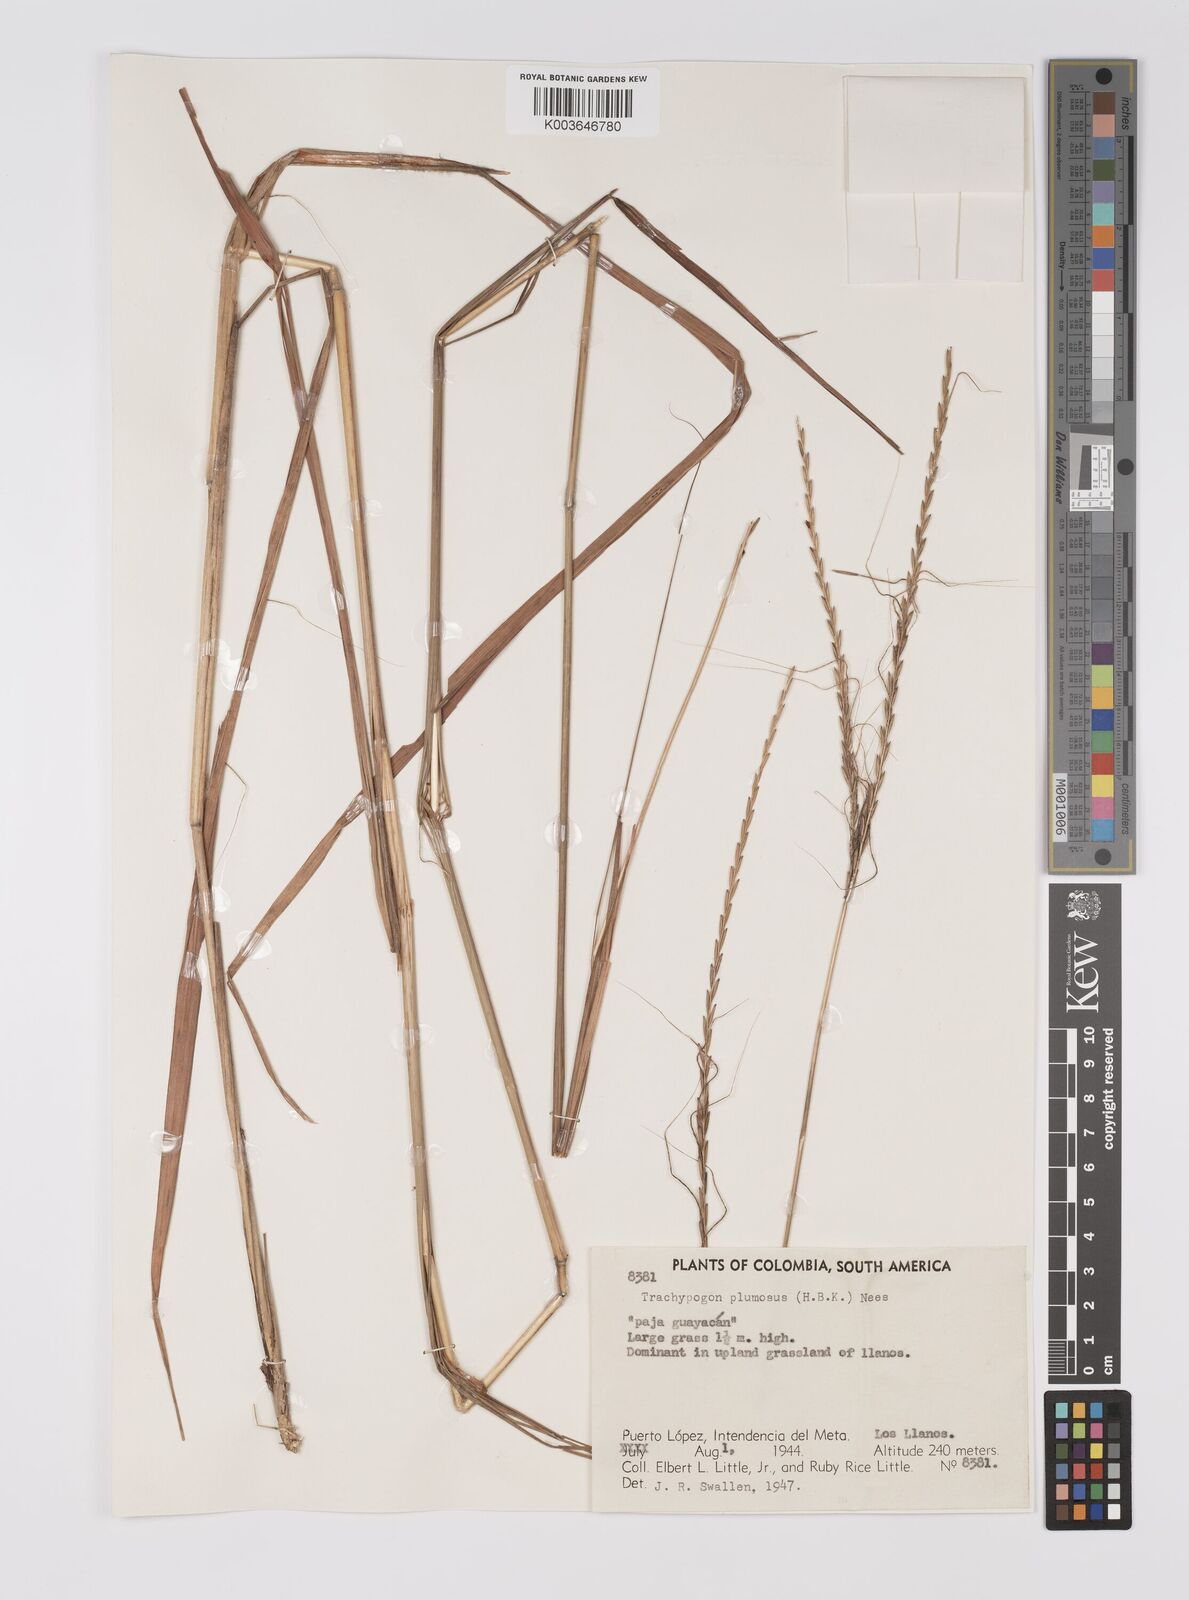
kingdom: Plantae
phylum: Tracheophyta
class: Liliopsida
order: Poales
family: Poaceae
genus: Trachypogon
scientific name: Trachypogon spicatus
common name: Crinkle-awn
